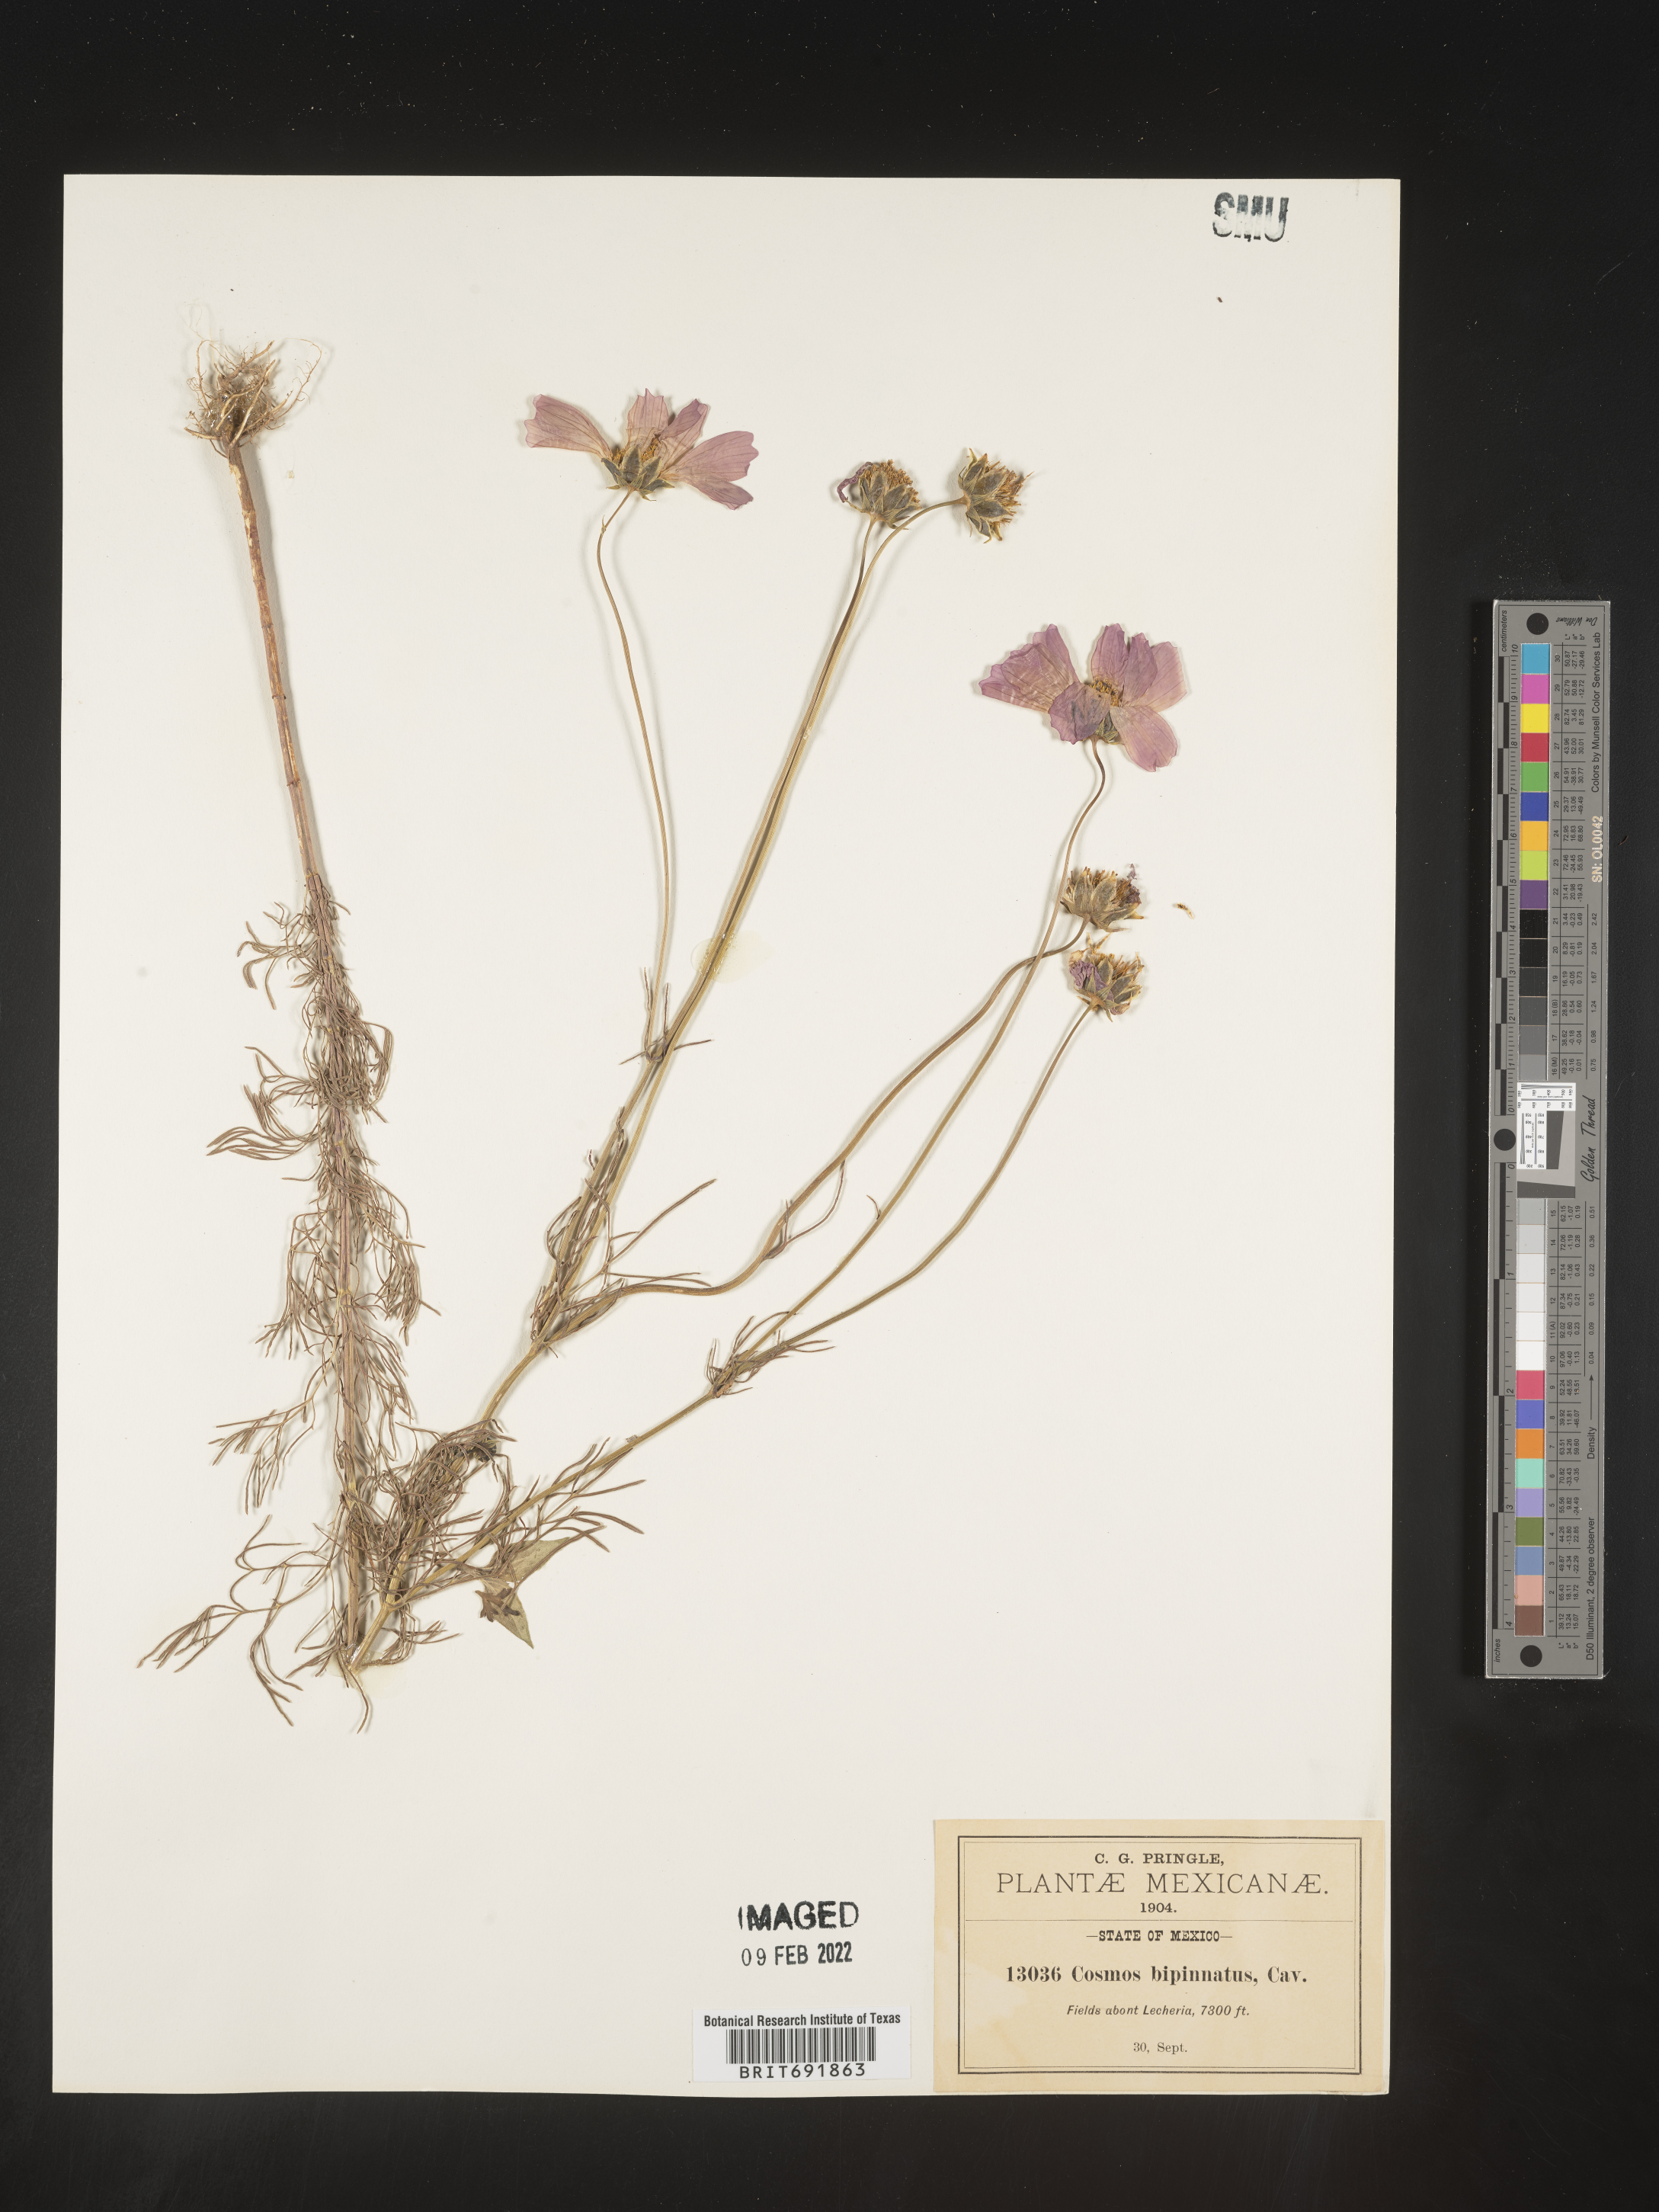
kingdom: Plantae
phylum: Tracheophyta
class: Magnoliopsida
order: Asterales
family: Asteraceae
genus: Cosmos
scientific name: Cosmos
